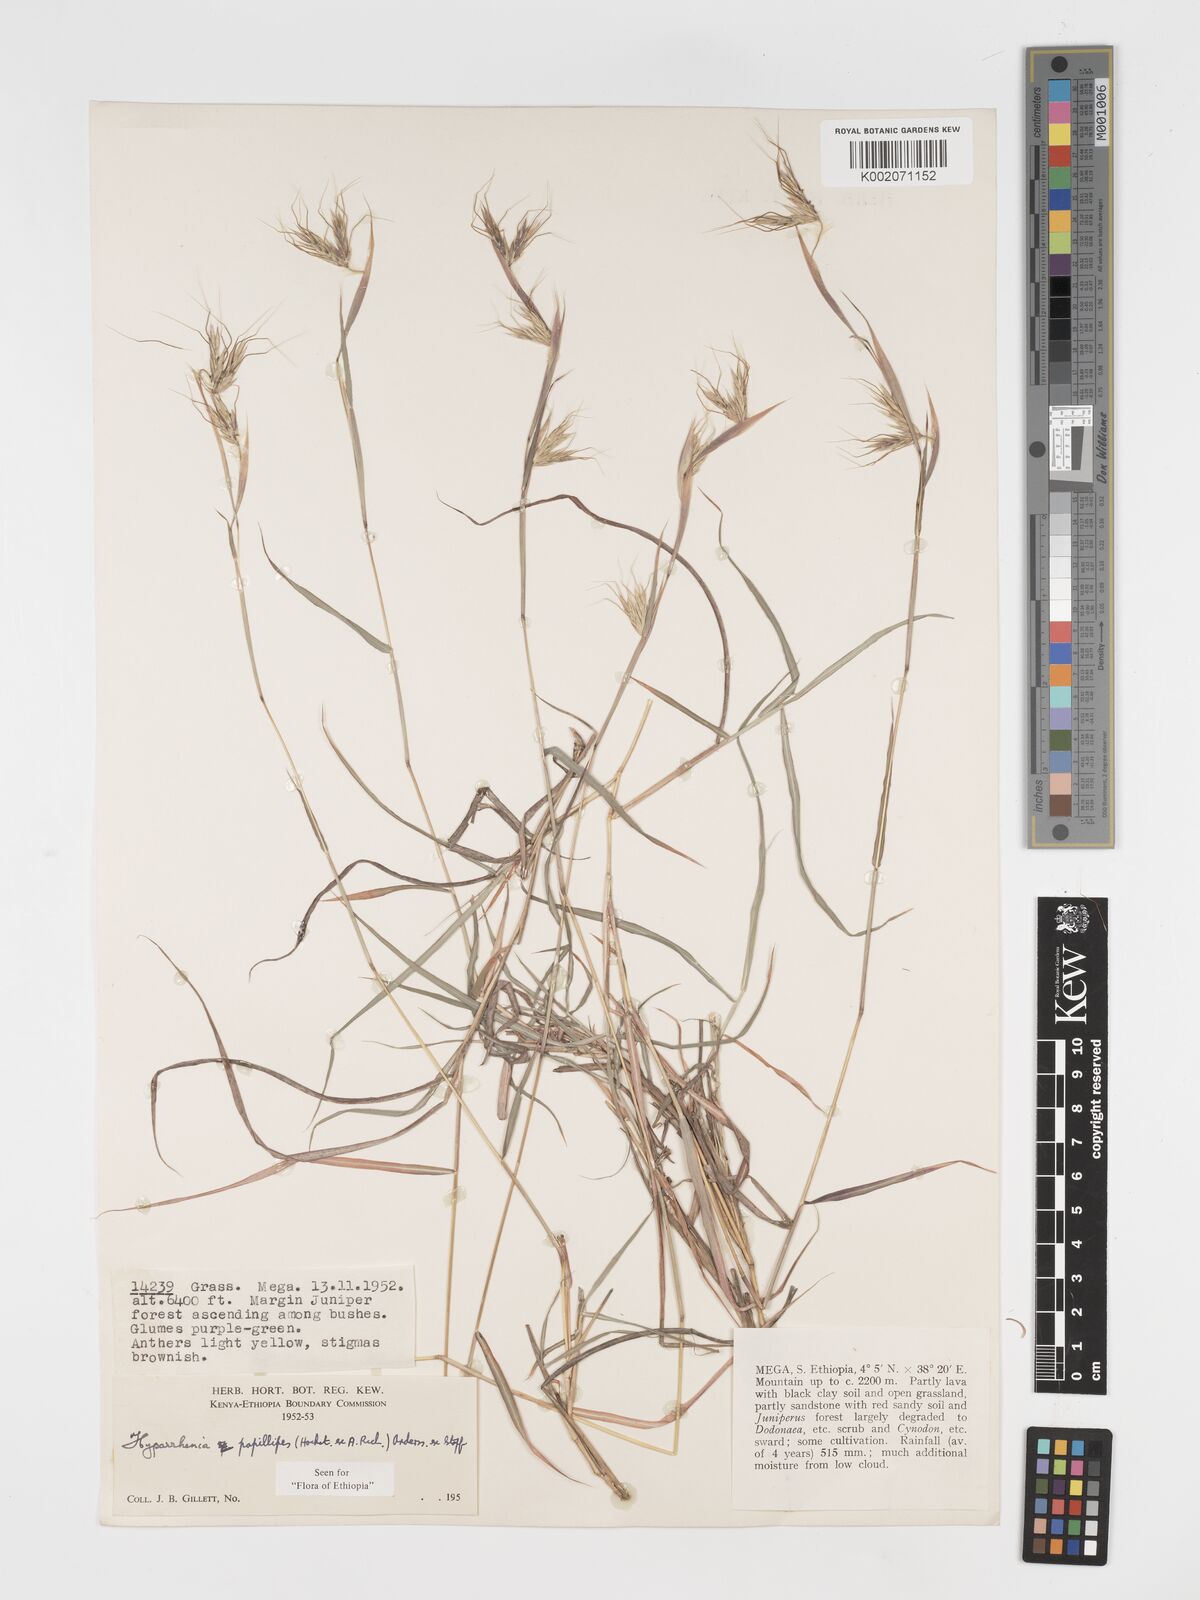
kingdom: Plantae
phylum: Tracheophyta
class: Liliopsida
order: Poales
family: Poaceae
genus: Hyparrhenia
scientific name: Hyparrhenia papillipes
